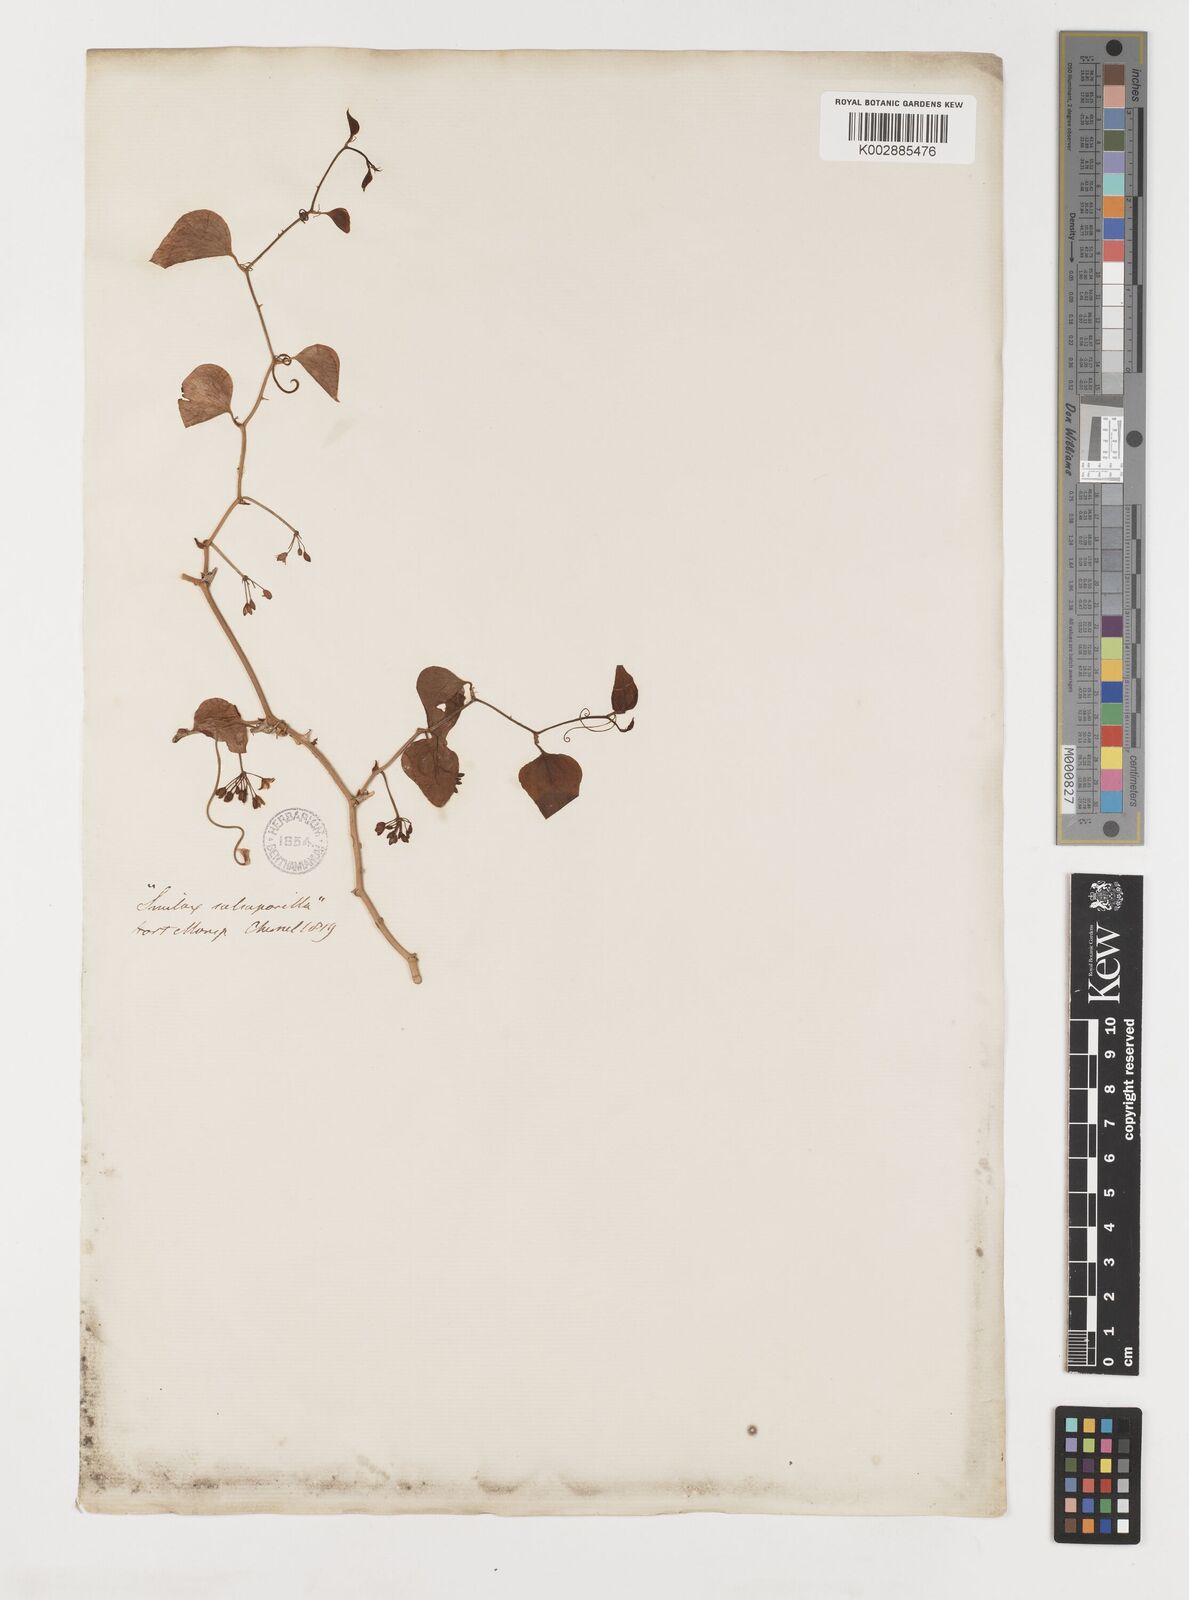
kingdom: Plantae
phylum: Tracheophyta
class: Liliopsida
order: Liliales
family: Smilacaceae
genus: Smilax
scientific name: Smilax
